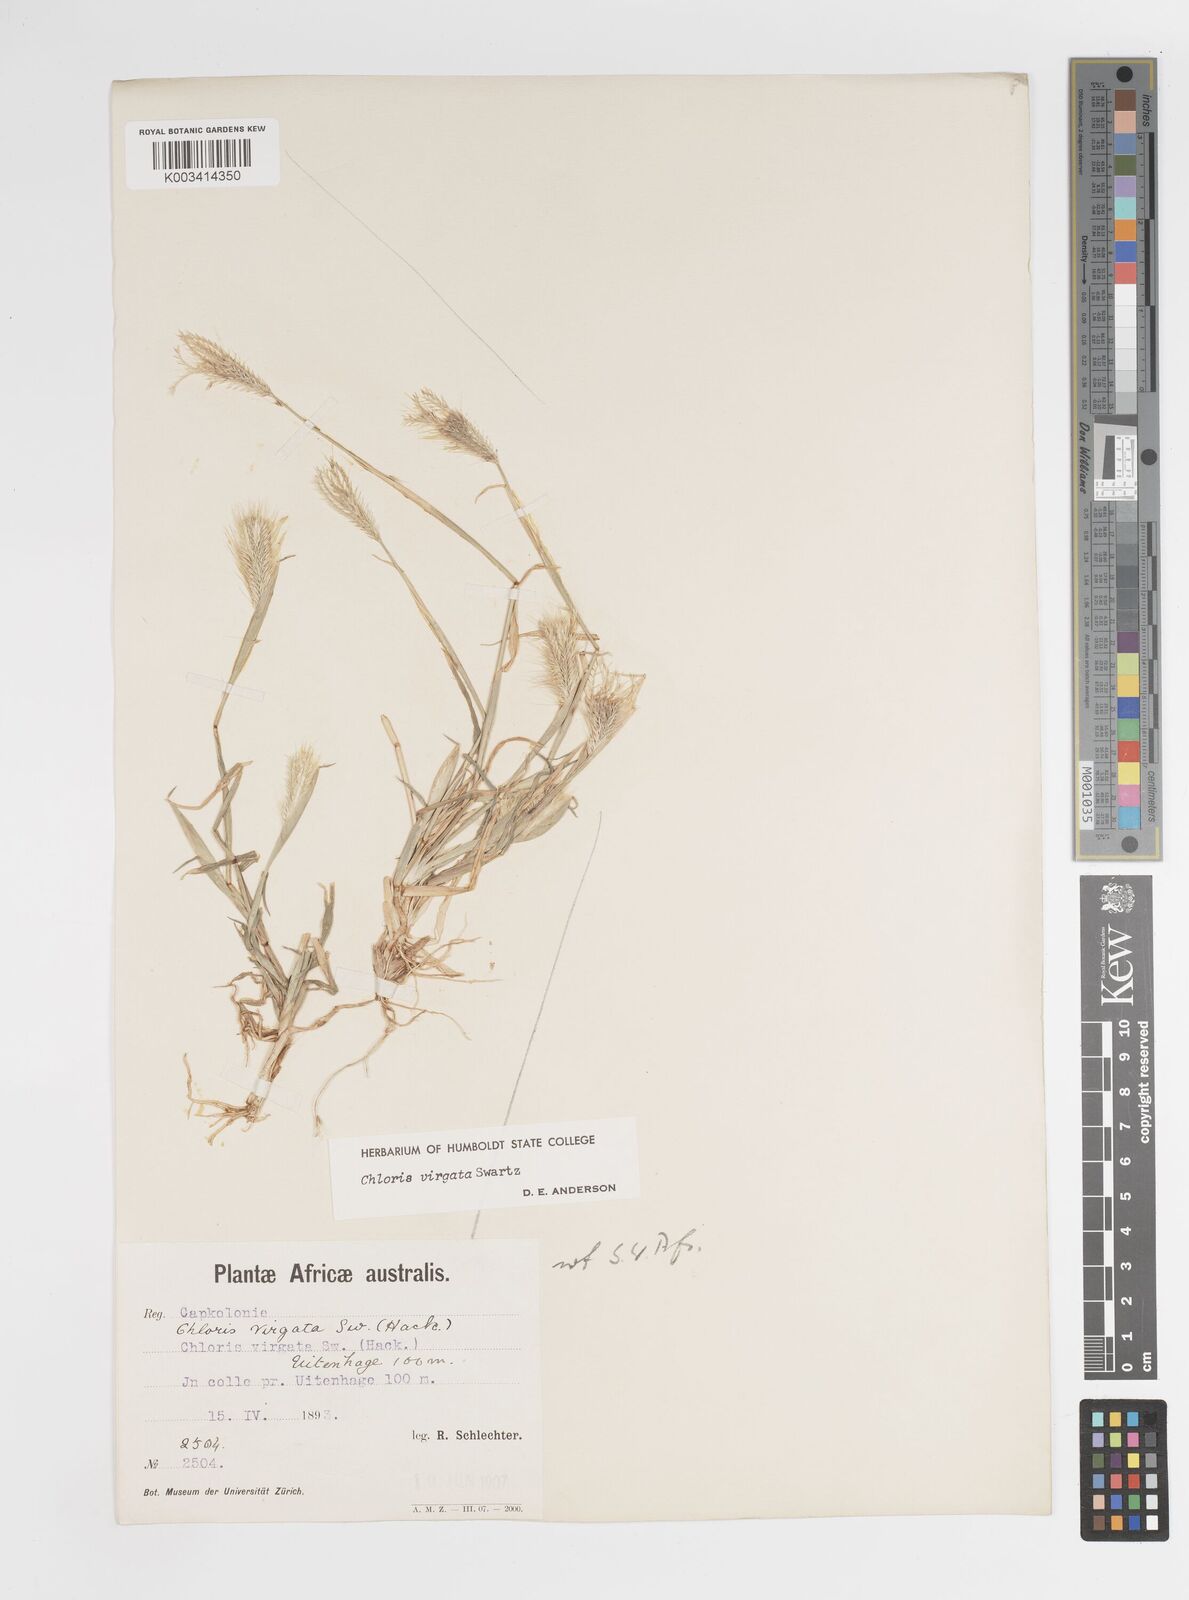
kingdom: Plantae
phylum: Tracheophyta
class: Liliopsida
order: Poales
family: Poaceae
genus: Chloris
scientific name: Chloris virgata
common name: Feathery rhodes-grass
